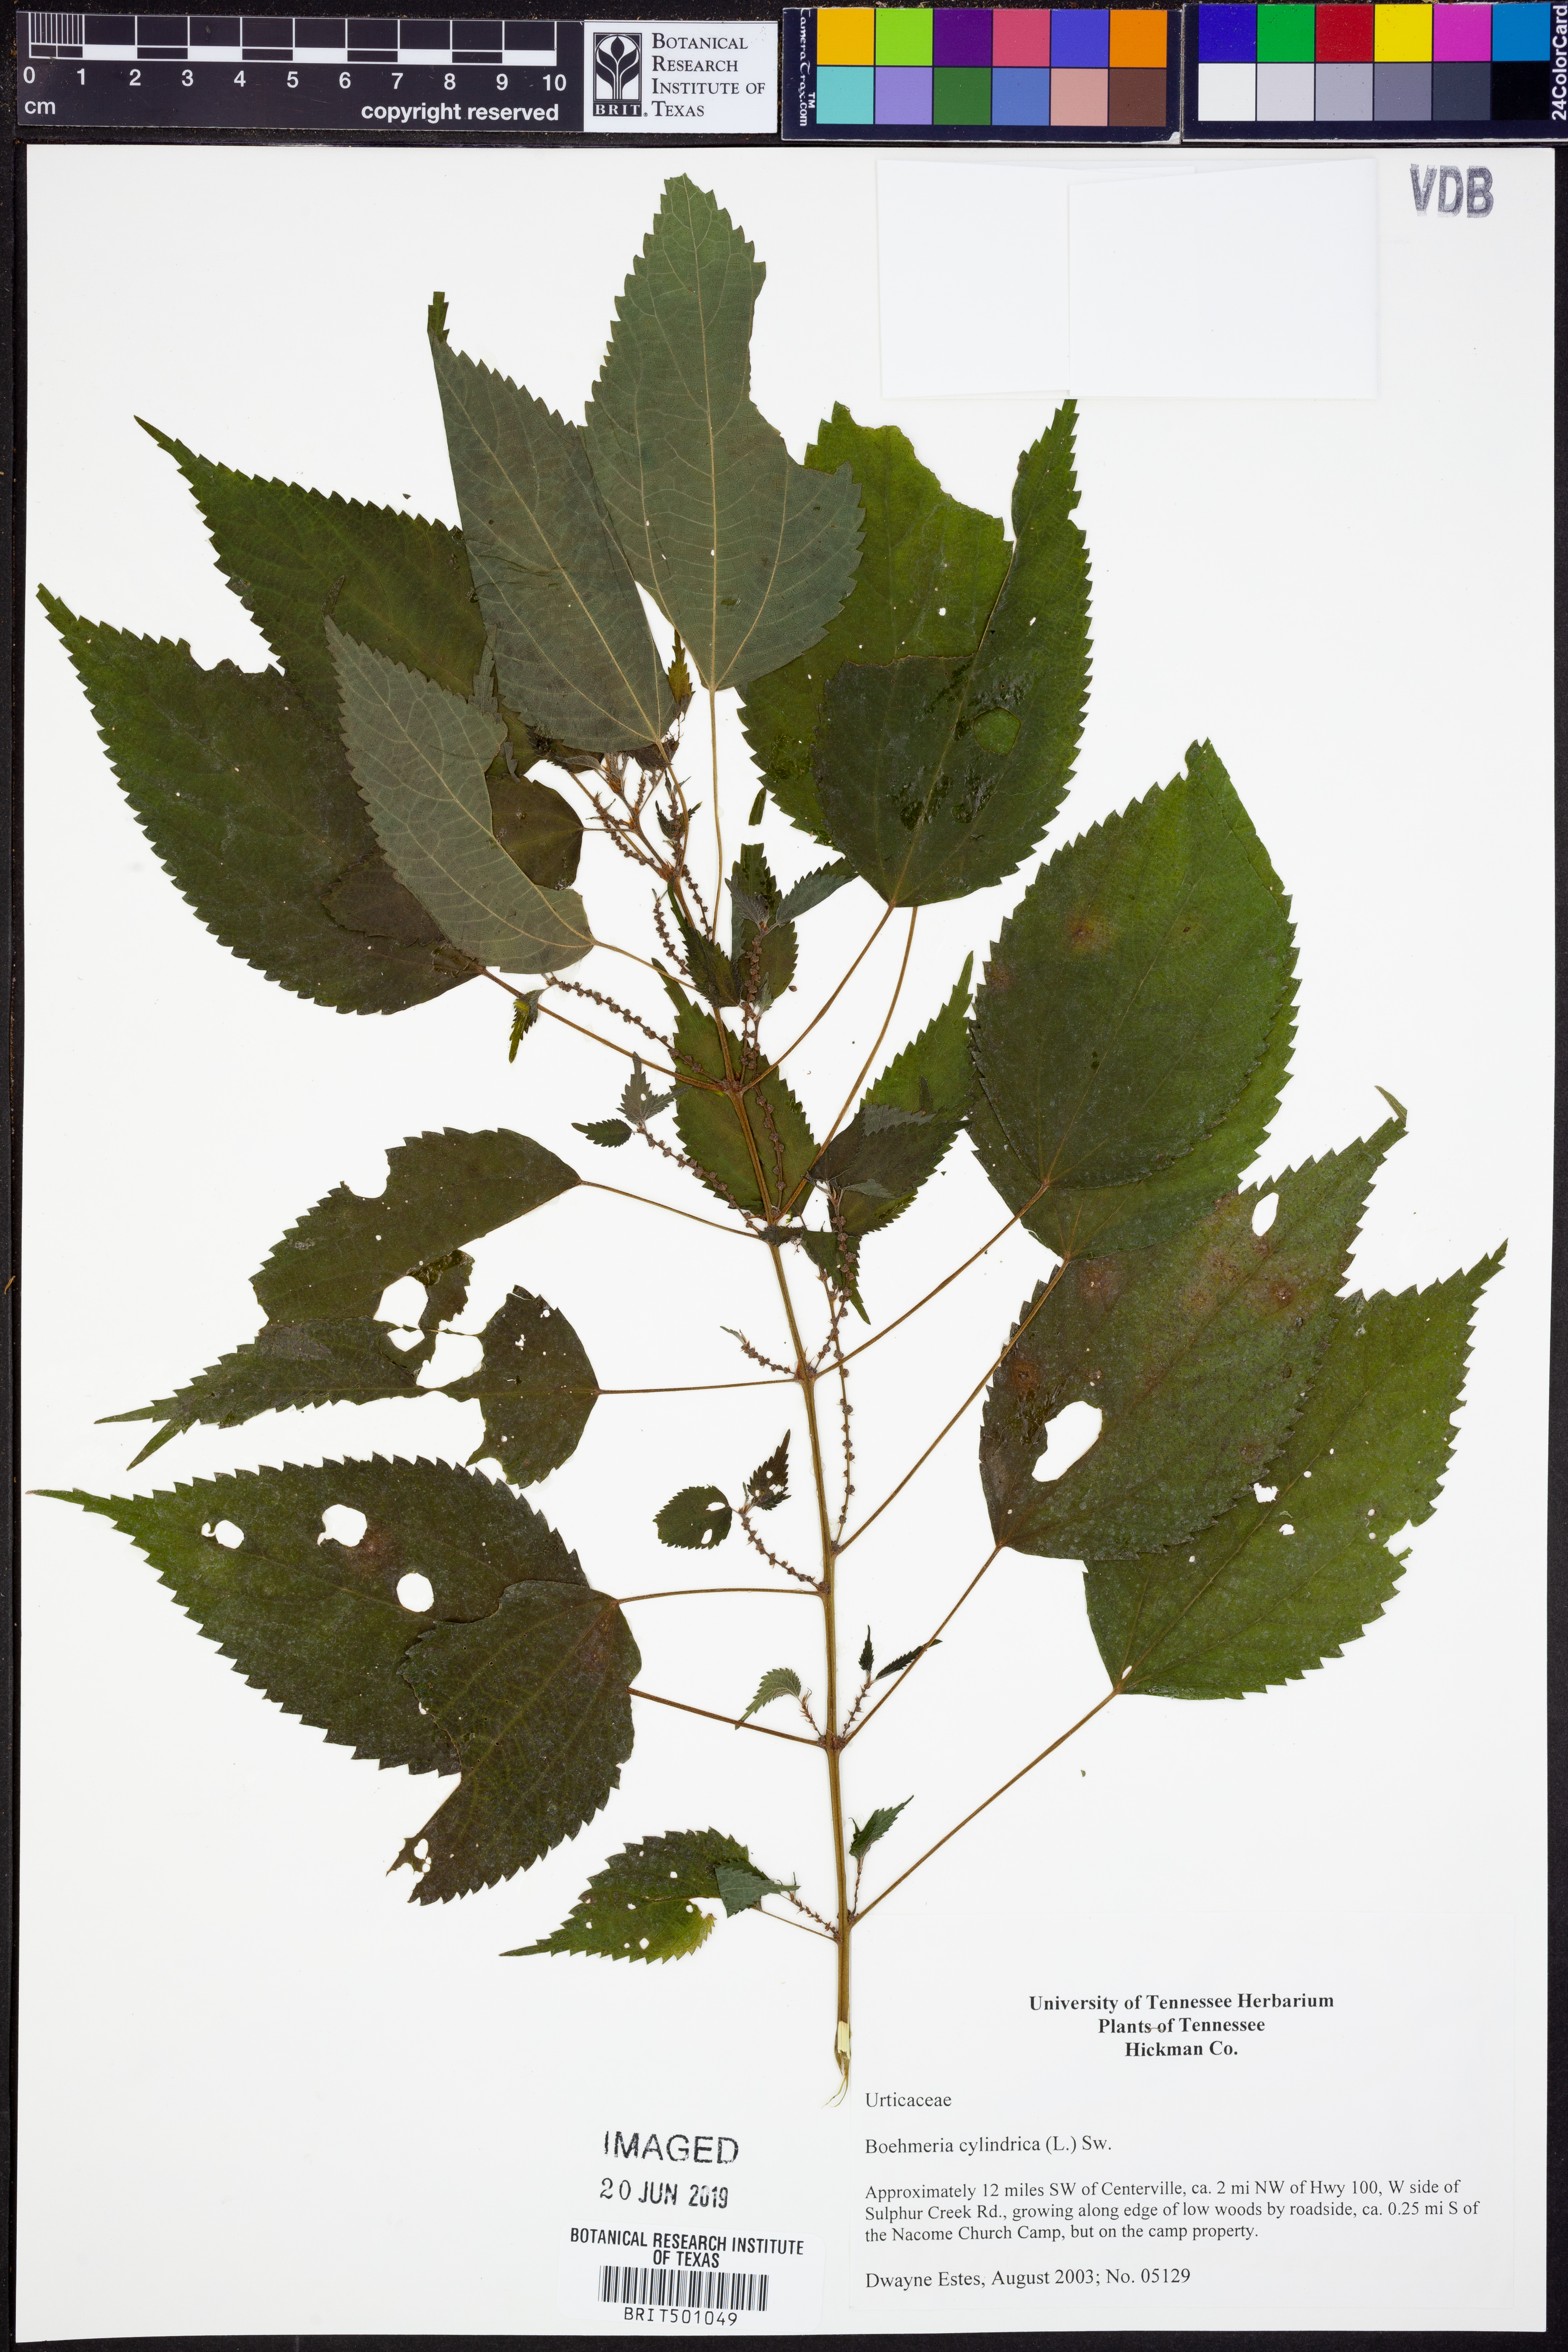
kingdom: Plantae
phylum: Tracheophyta
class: Magnoliopsida
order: Rosales
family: Urticaceae
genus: Boehmeria
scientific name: Boehmeria cylindrica
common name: Bog-hemp
